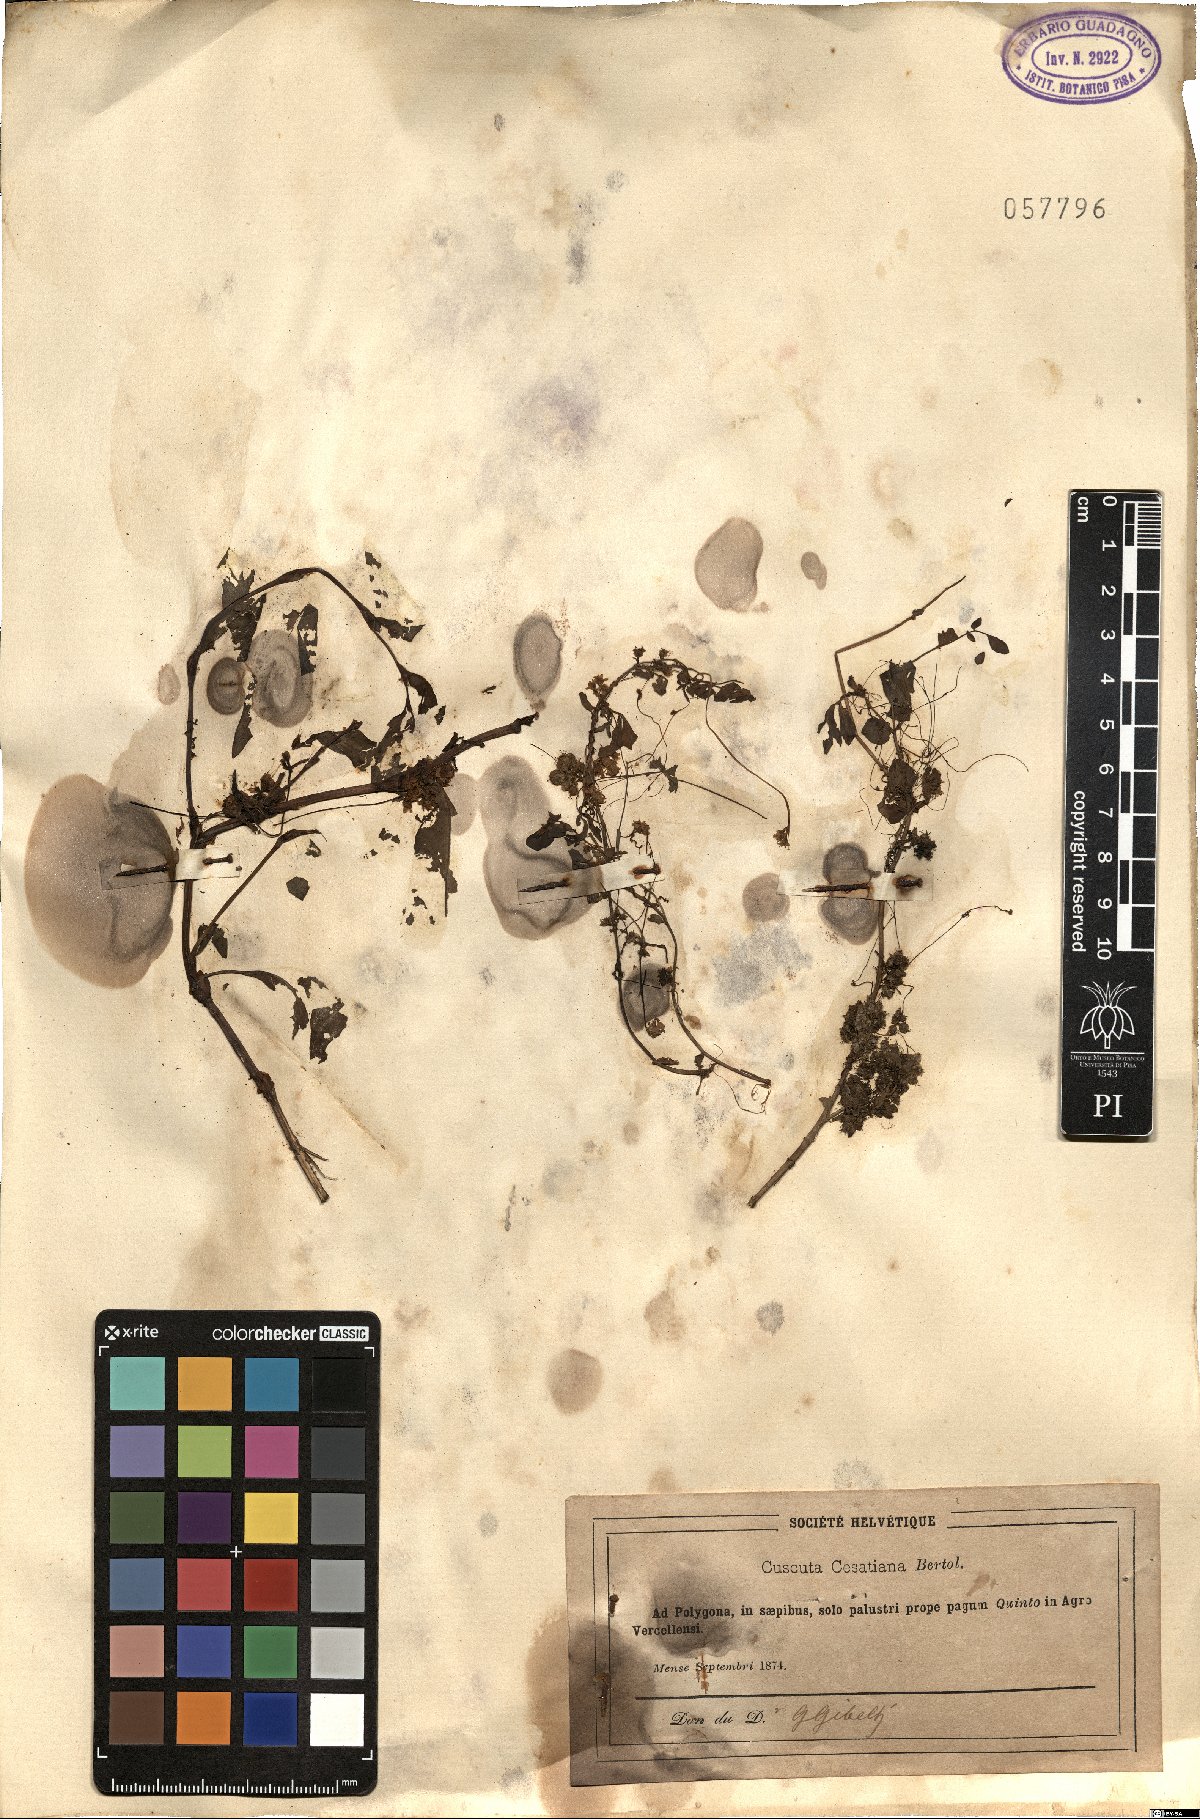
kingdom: Plantae
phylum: Tracheophyta
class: Magnoliopsida
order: Solanales
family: Convolvulaceae
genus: Cuscuta
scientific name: Cuscuta australis
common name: Australian dodder
